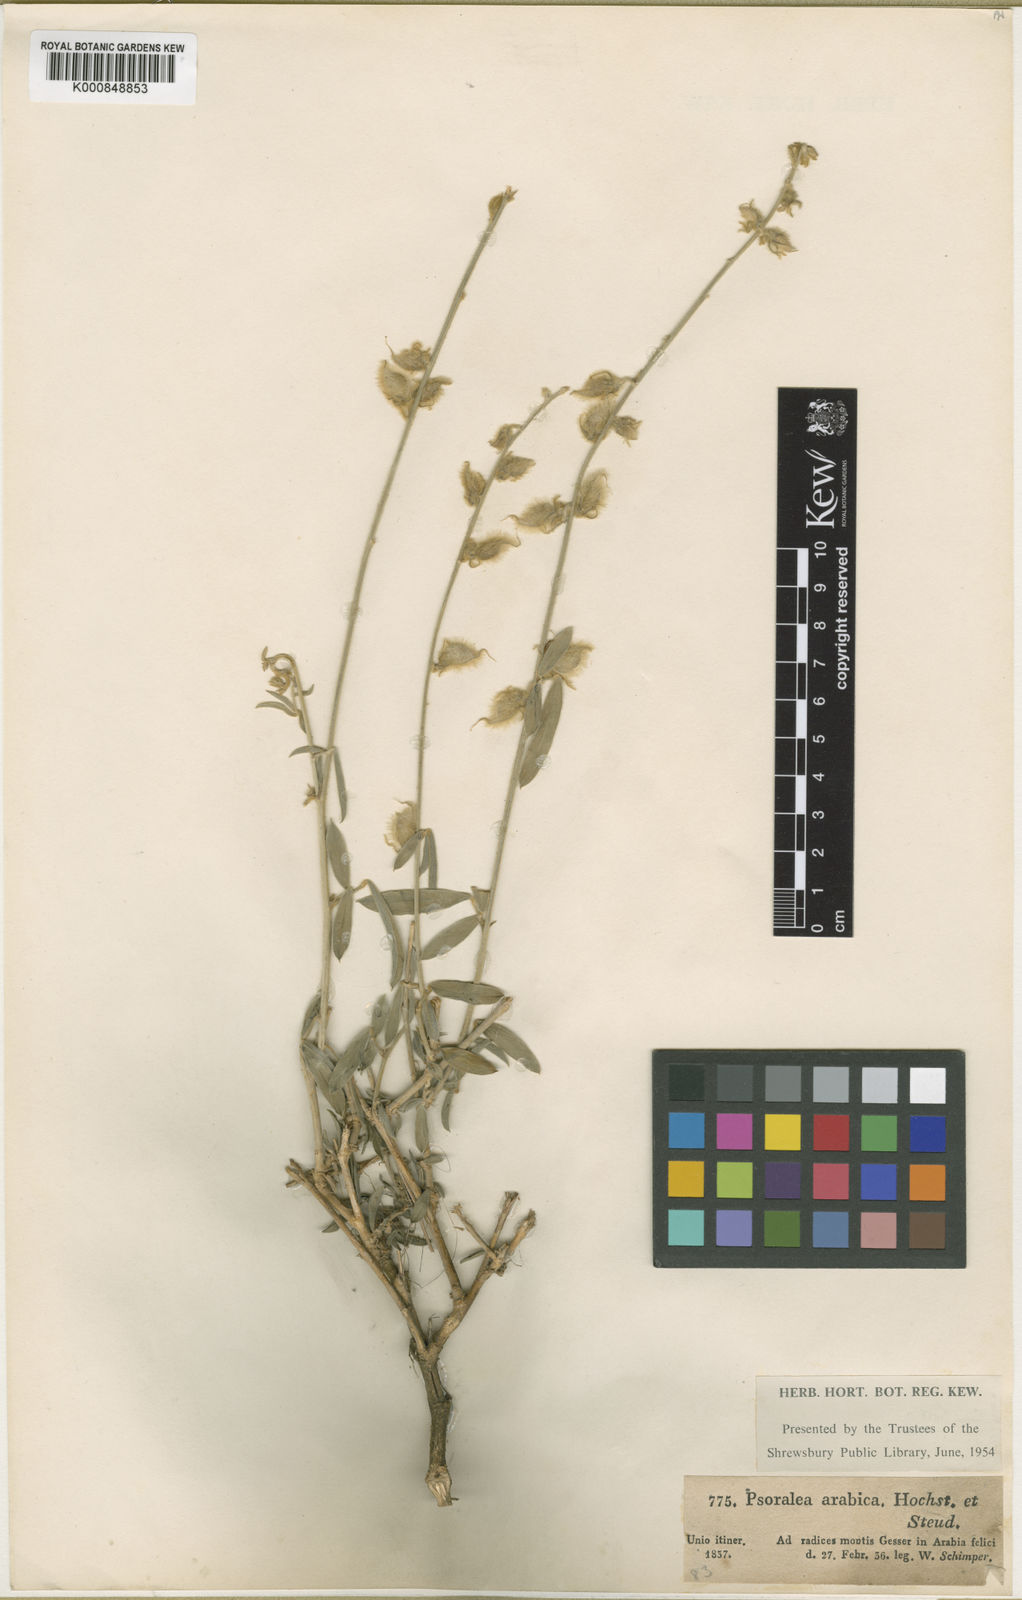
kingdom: Plantae
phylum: Tracheophyta
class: Magnoliopsida
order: Fabales
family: Fabaceae
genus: Tephrosia
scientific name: Tephrosia nubica
